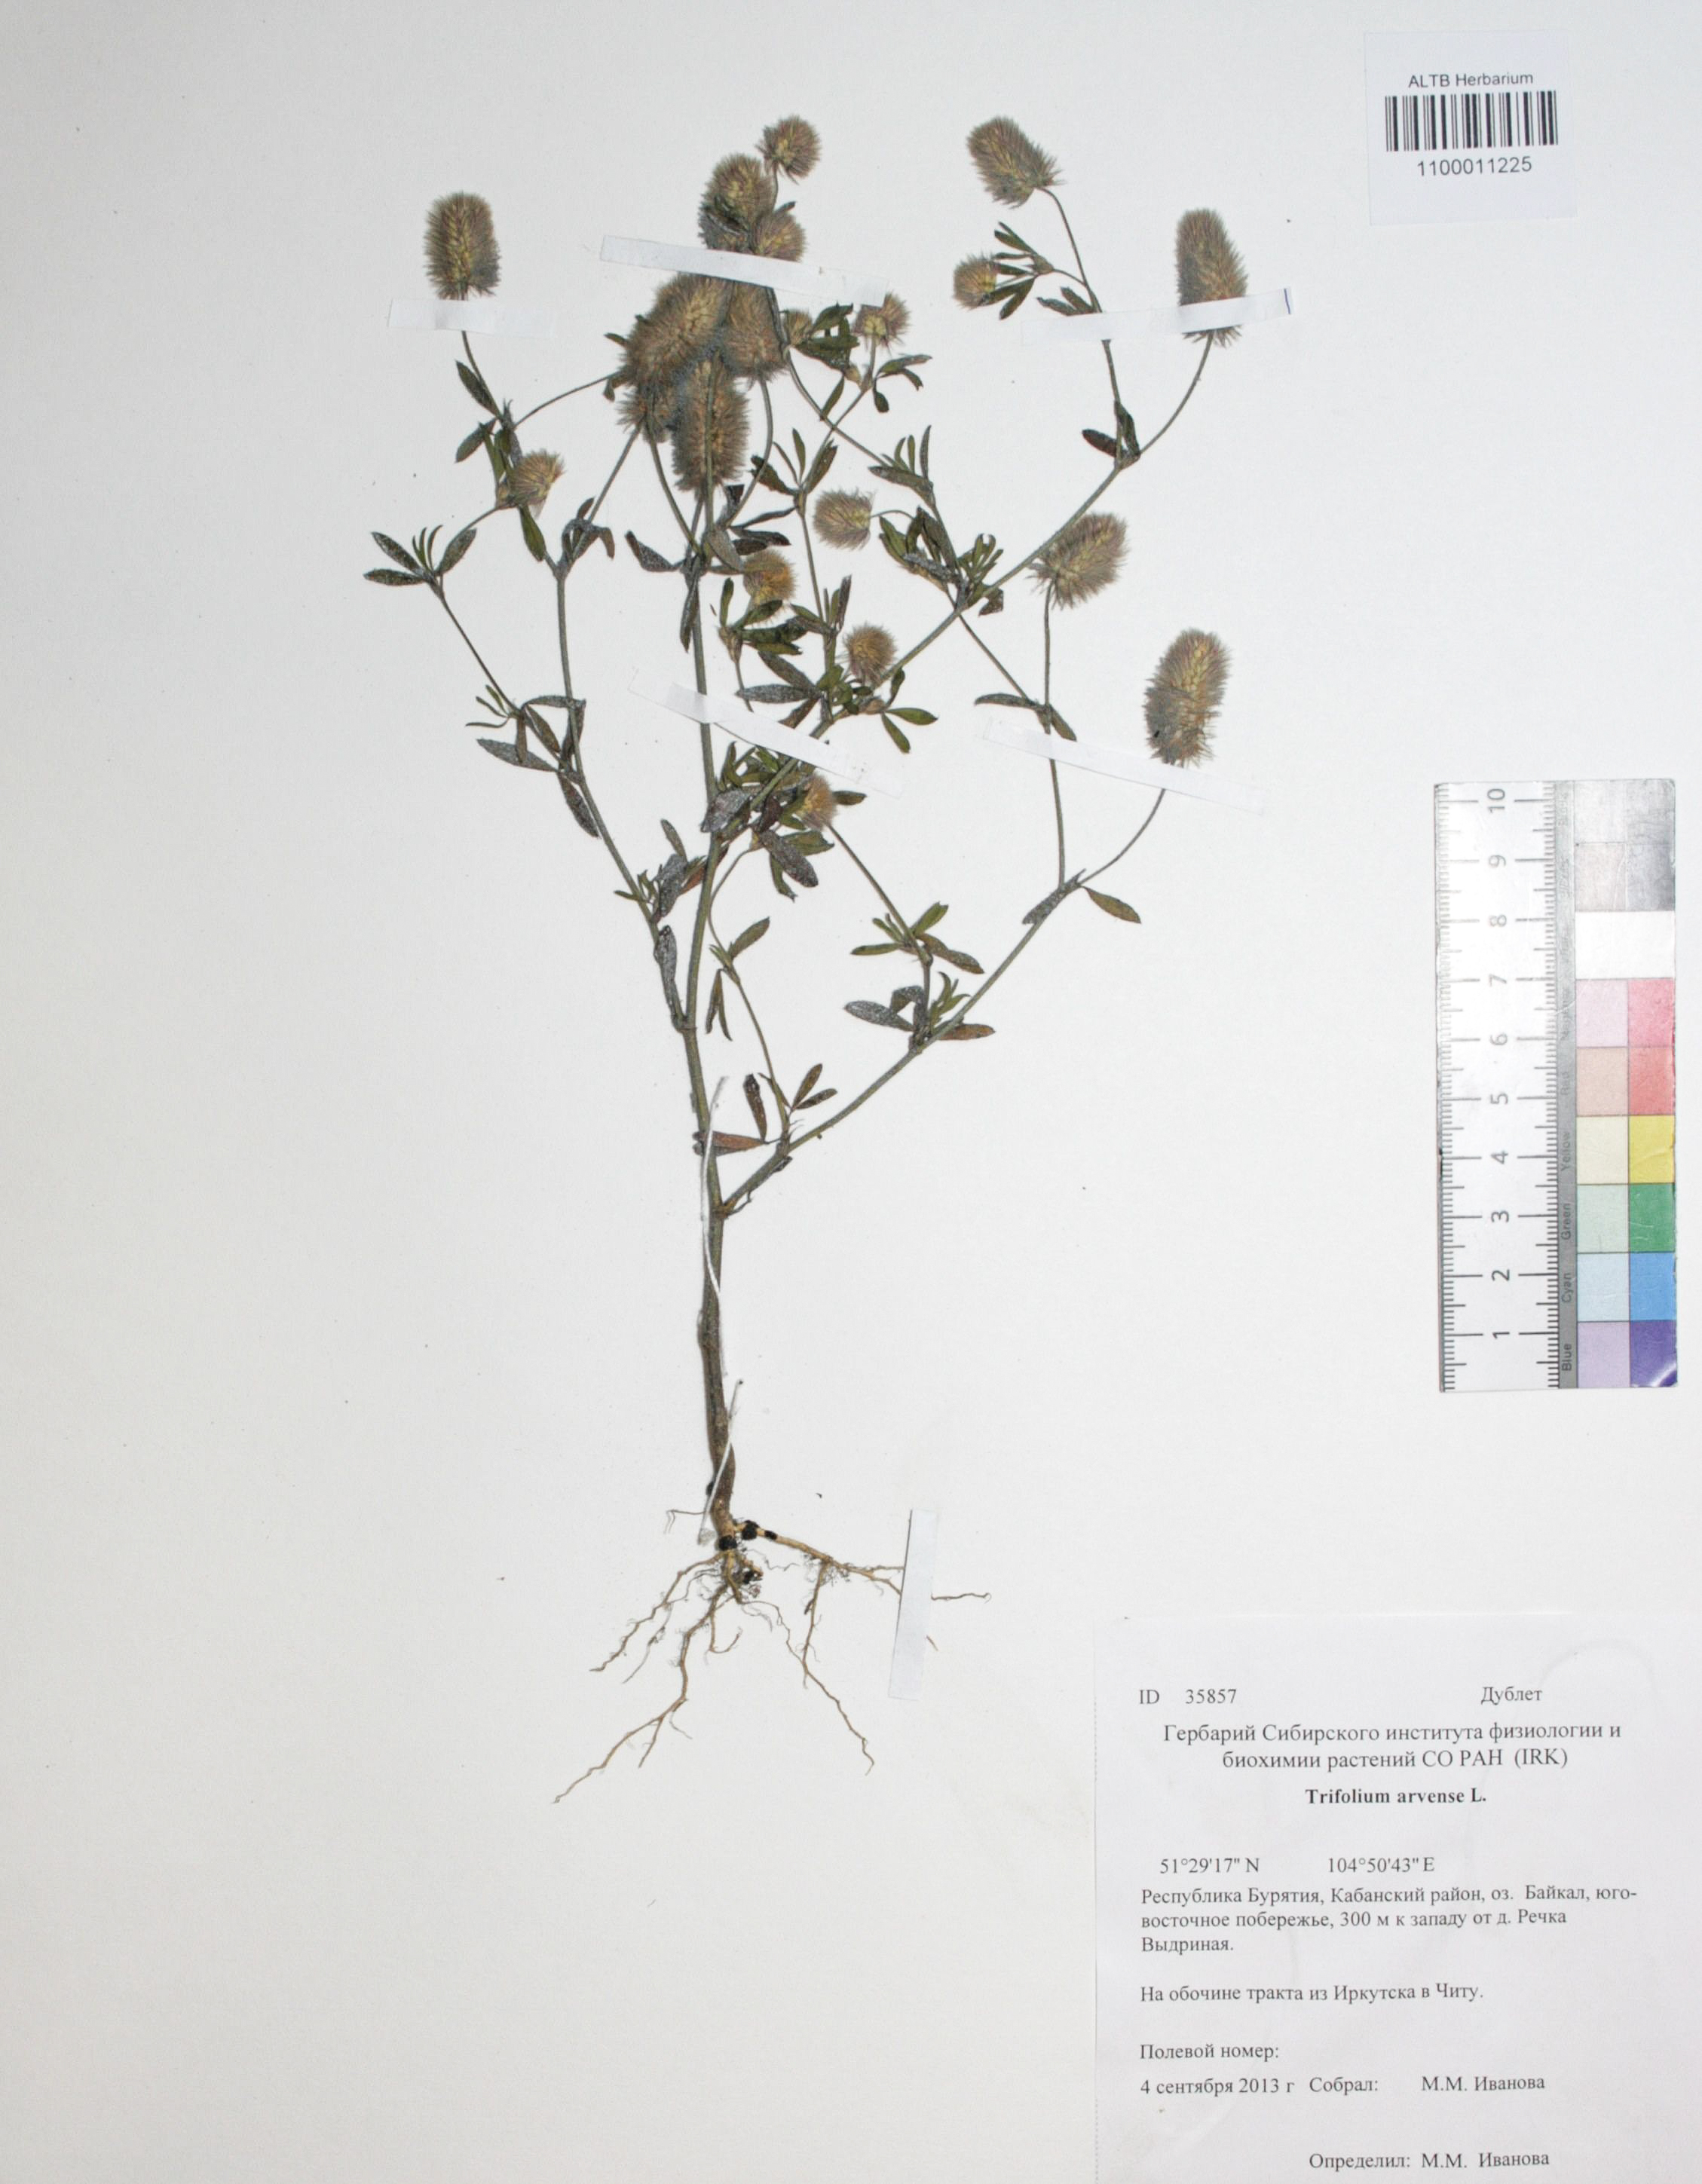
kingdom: Plantae
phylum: Tracheophyta
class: Magnoliopsida
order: Fabales
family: Fabaceae
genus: Trifolium
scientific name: Trifolium arvense
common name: Hare's-foot clover
